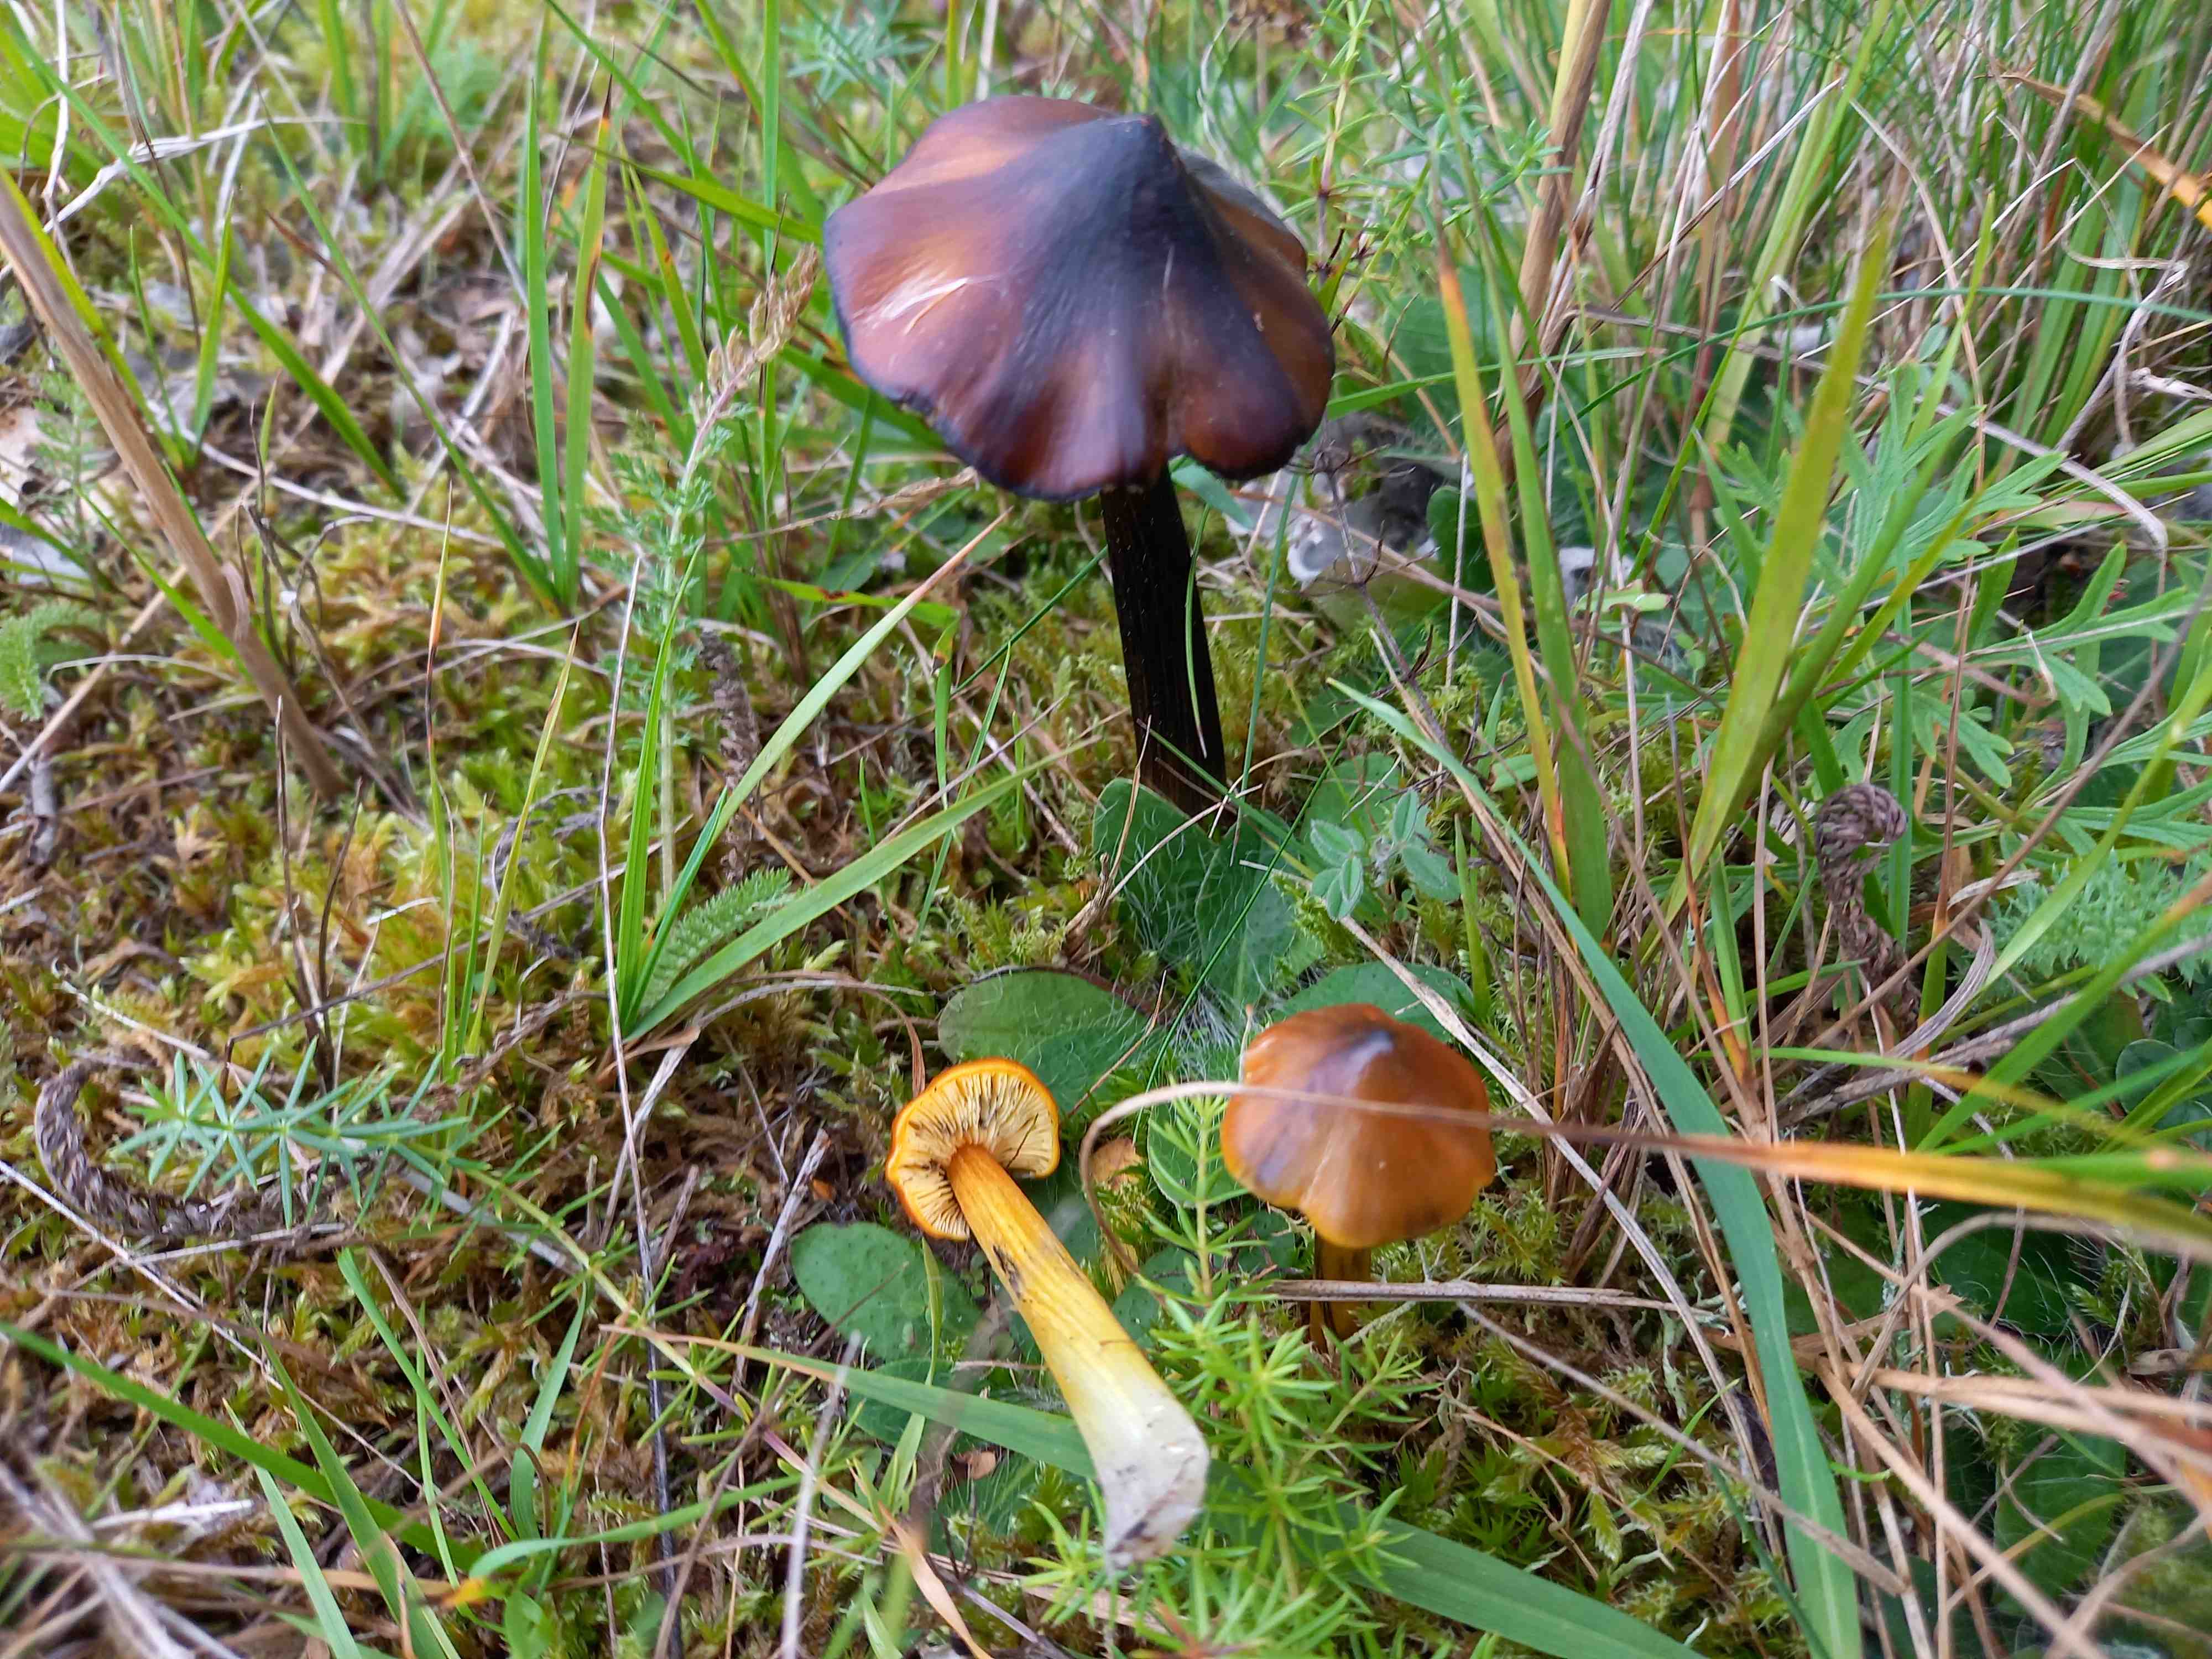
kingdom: Fungi
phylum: Basidiomycota
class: Agaricomycetes
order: Agaricales
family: Hygrophoraceae
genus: Hygrocybe
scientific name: Hygrocybe conica
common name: kegle-vokshat
